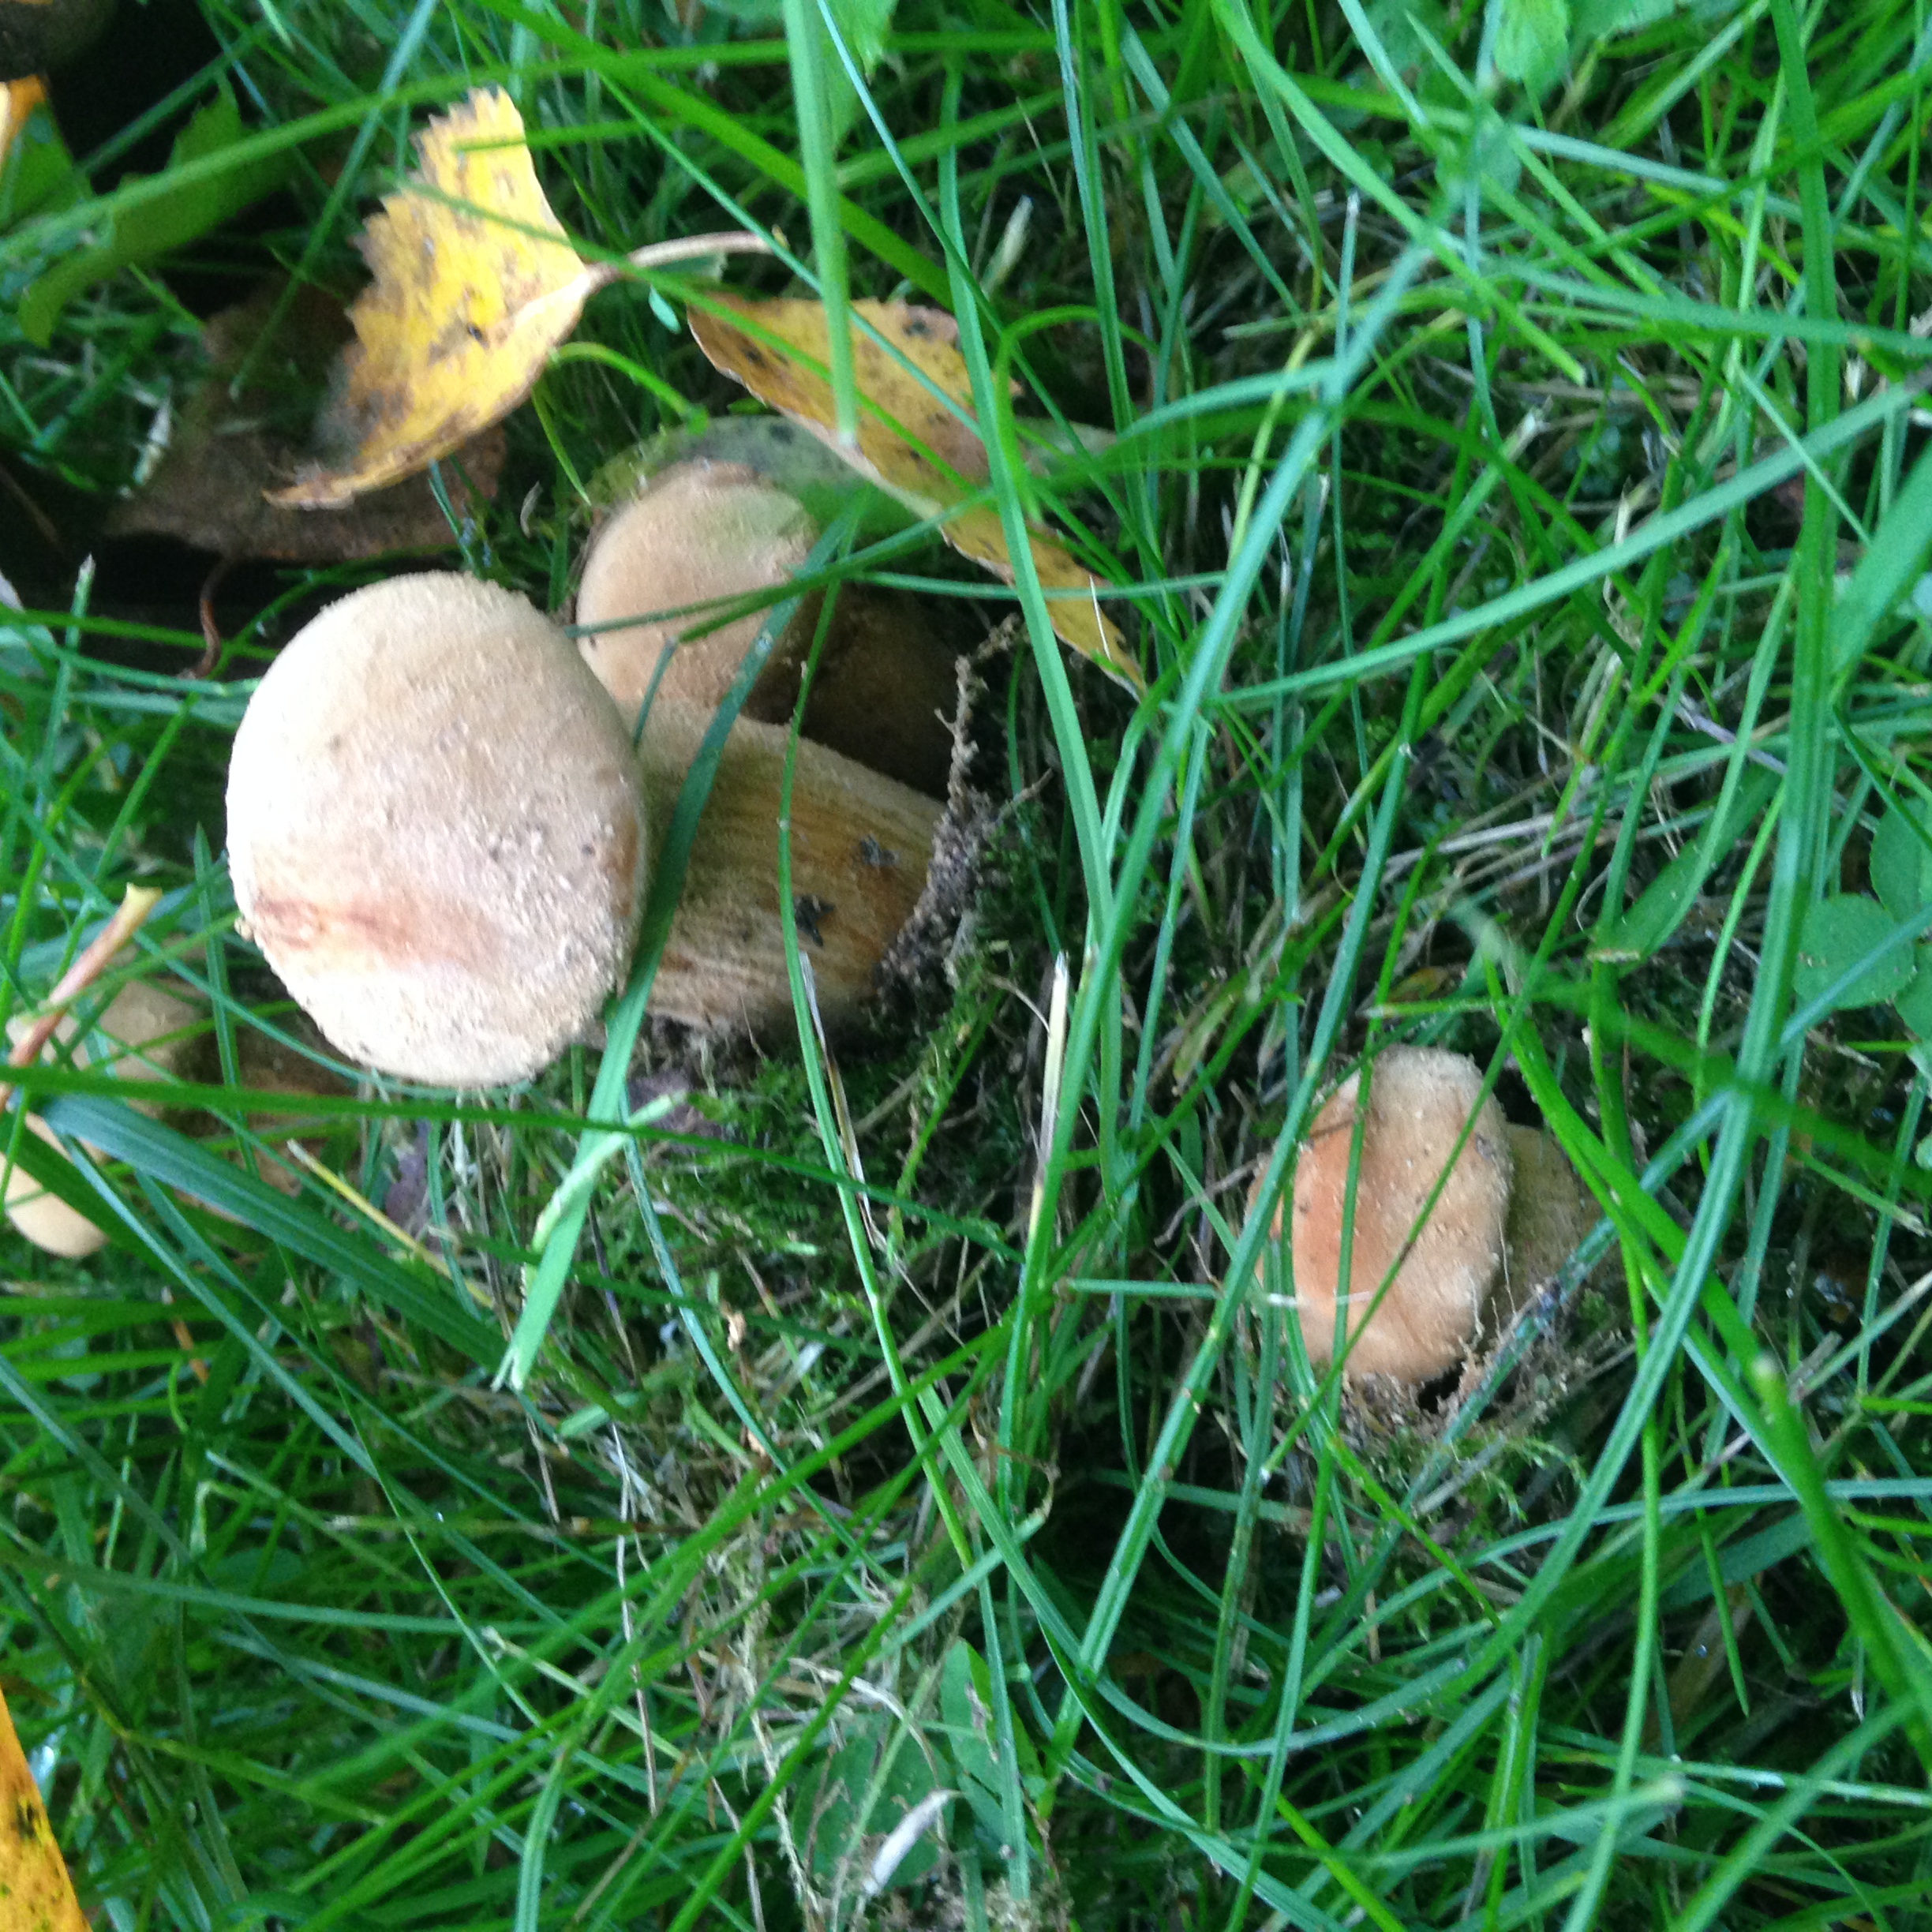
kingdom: Fungi
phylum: Basidiomycota
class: Agaricomycetes
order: Agaricales
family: Tricholomataceae
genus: Phaeolepiota
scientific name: Phaeolepiota aurea
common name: Golden bootleg
